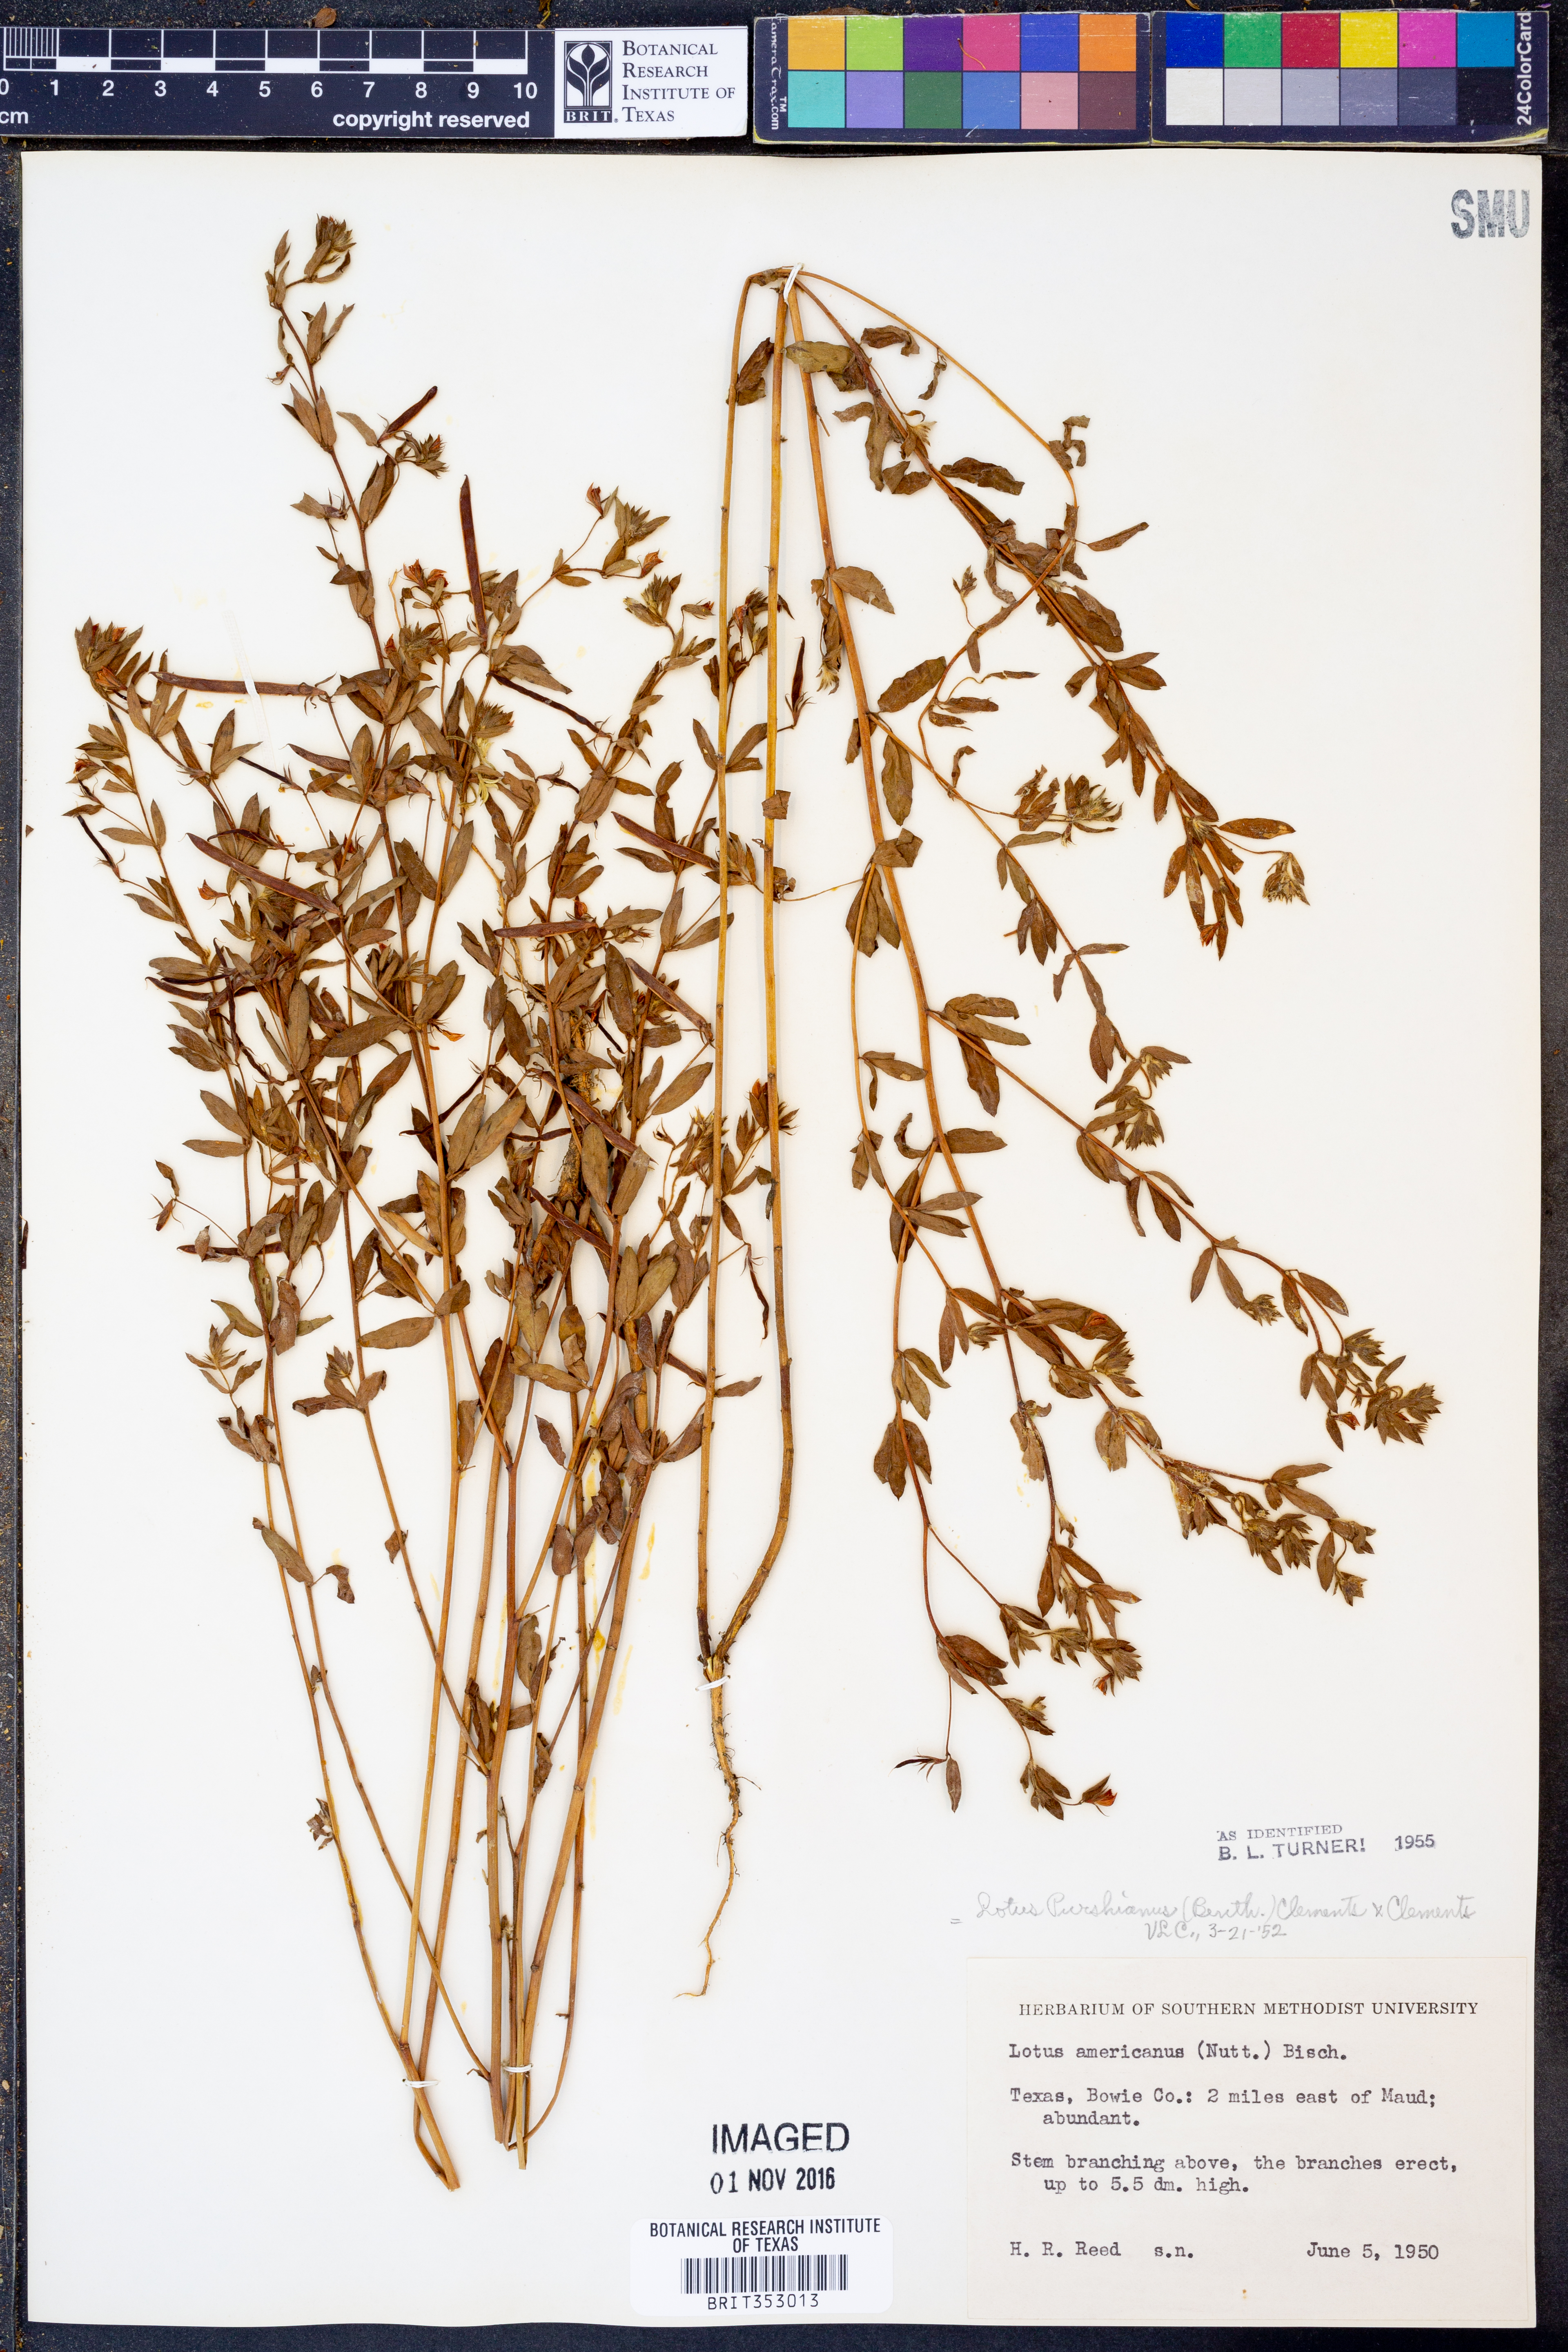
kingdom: Plantae
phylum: Tracheophyta
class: Magnoliopsida
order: Fabales
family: Fabaceae
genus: Acmispon
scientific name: Acmispon americanus
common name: American bird's-foot trefoil
